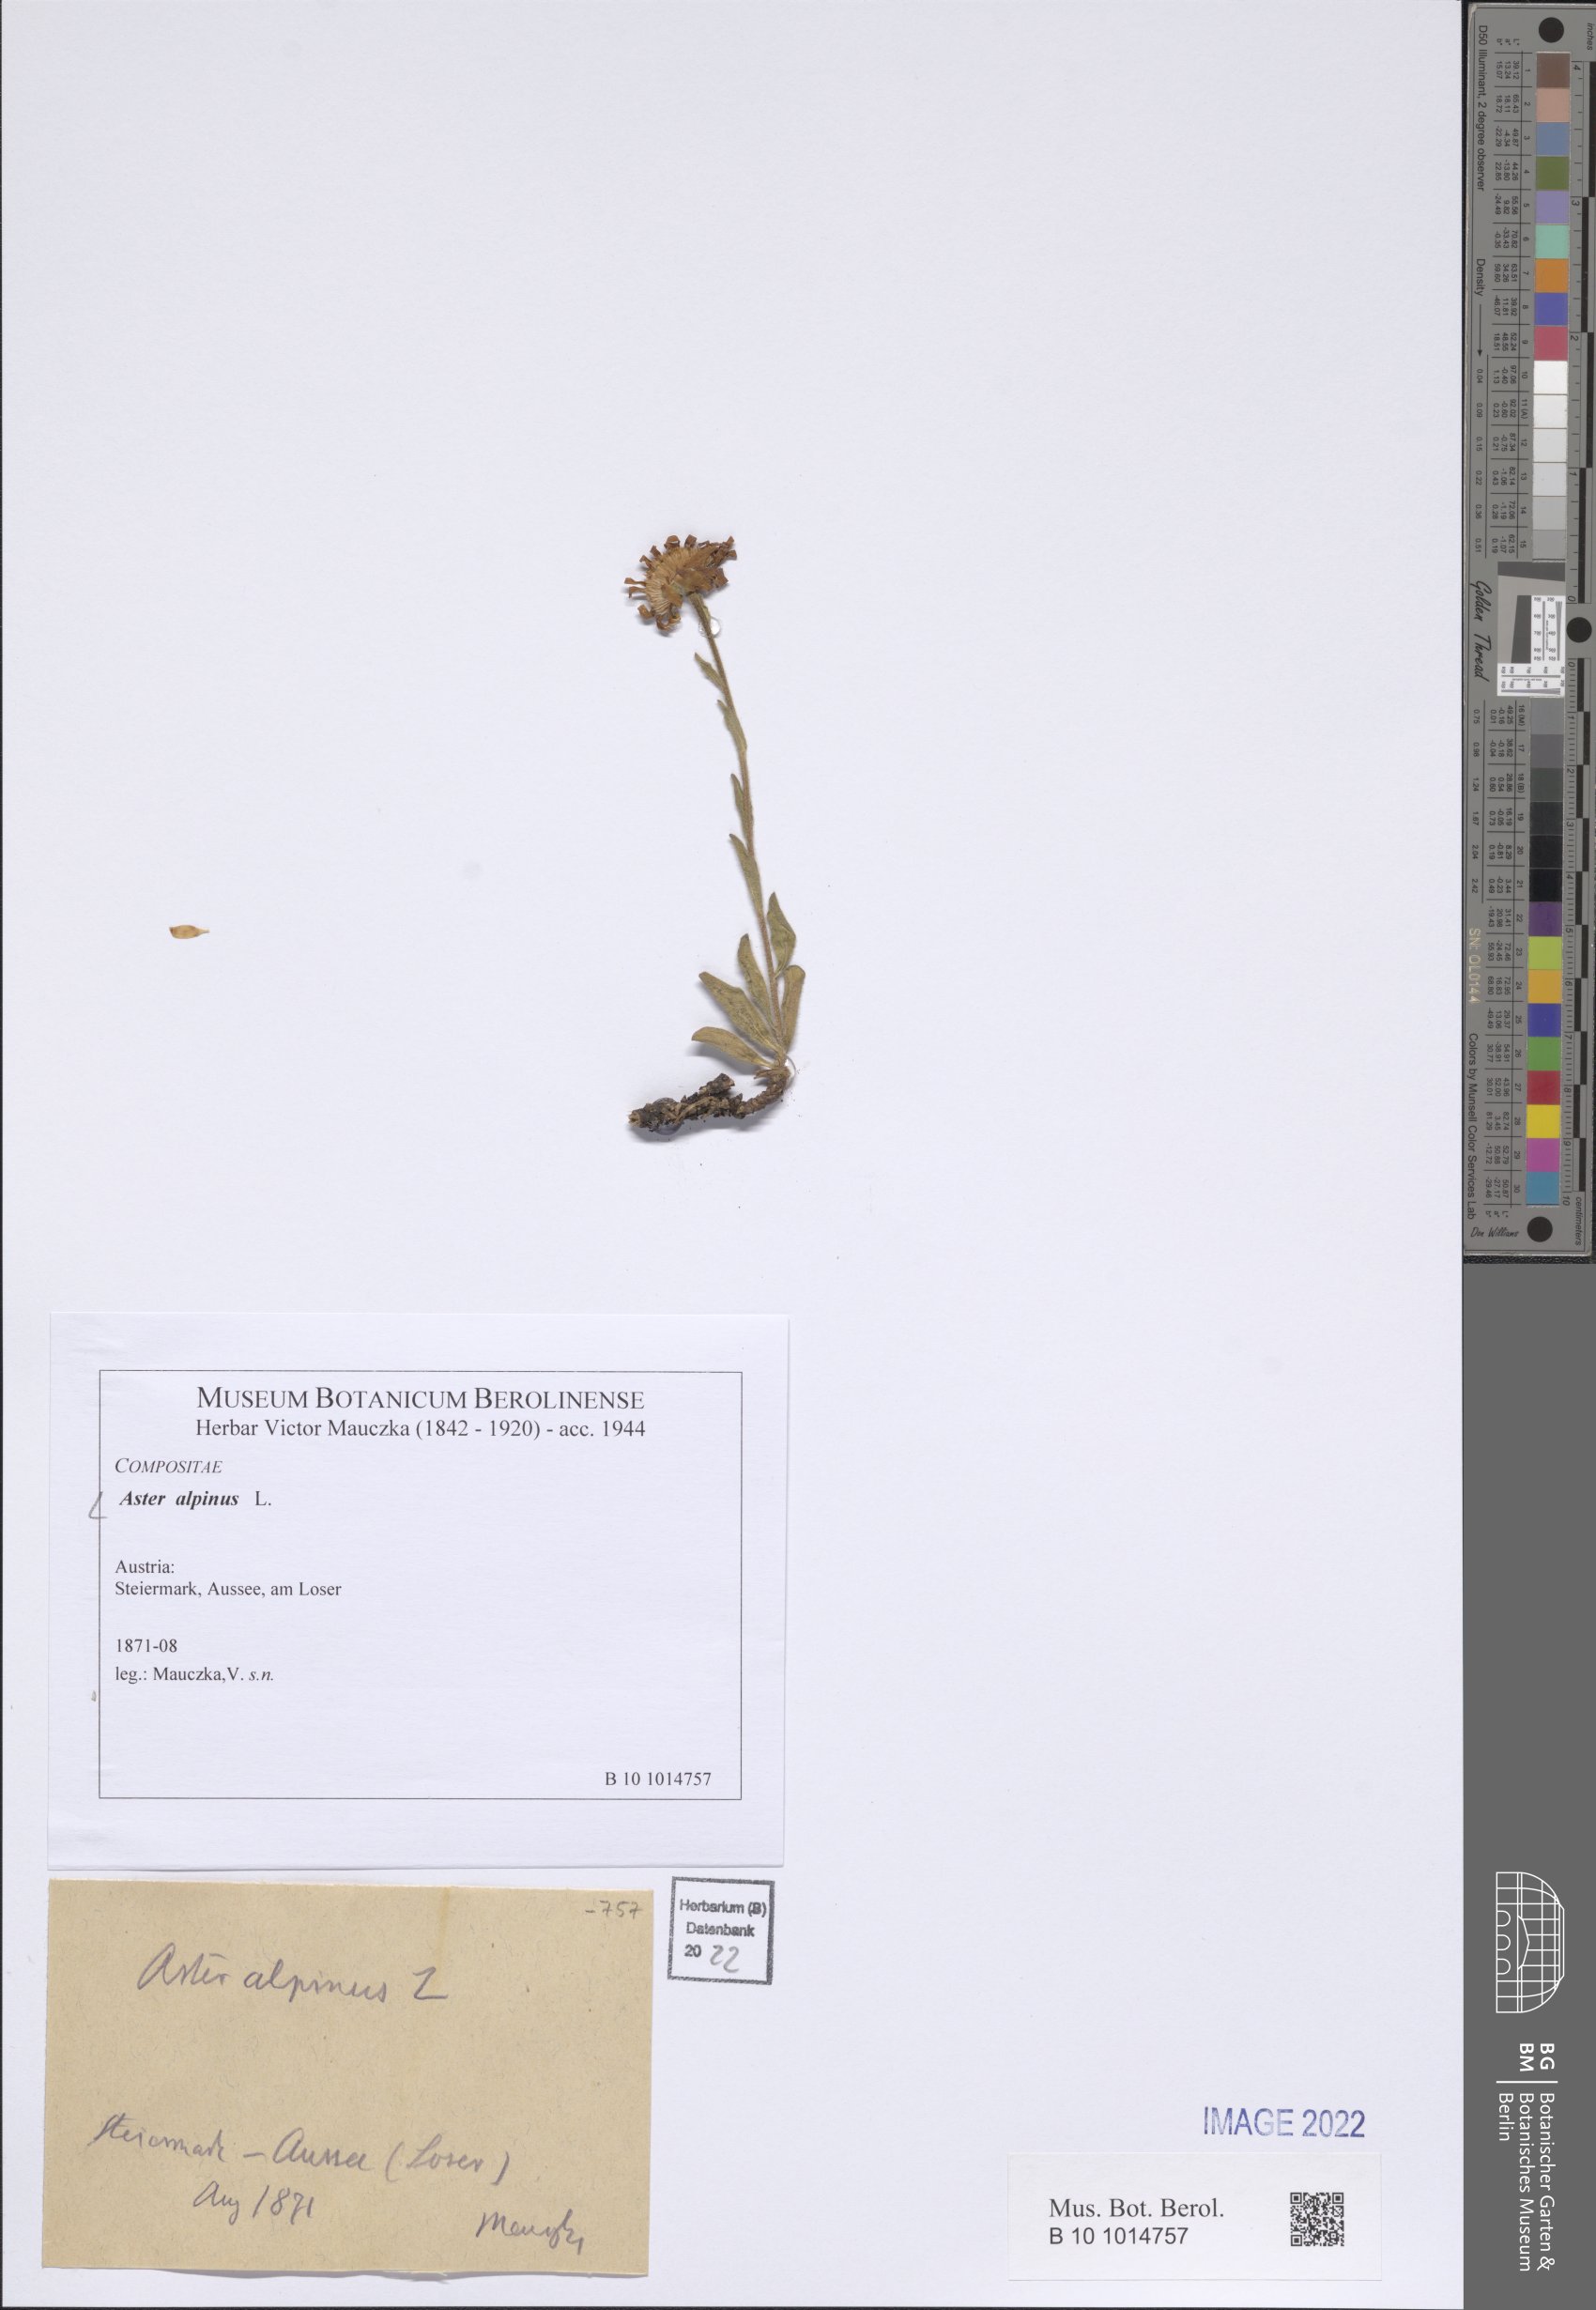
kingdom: Plantae
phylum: Tracheophyta
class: Magnoliopsida
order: Asterales
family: Asteraceae
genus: Aster
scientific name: Aster alpinus
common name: Alpine aster
